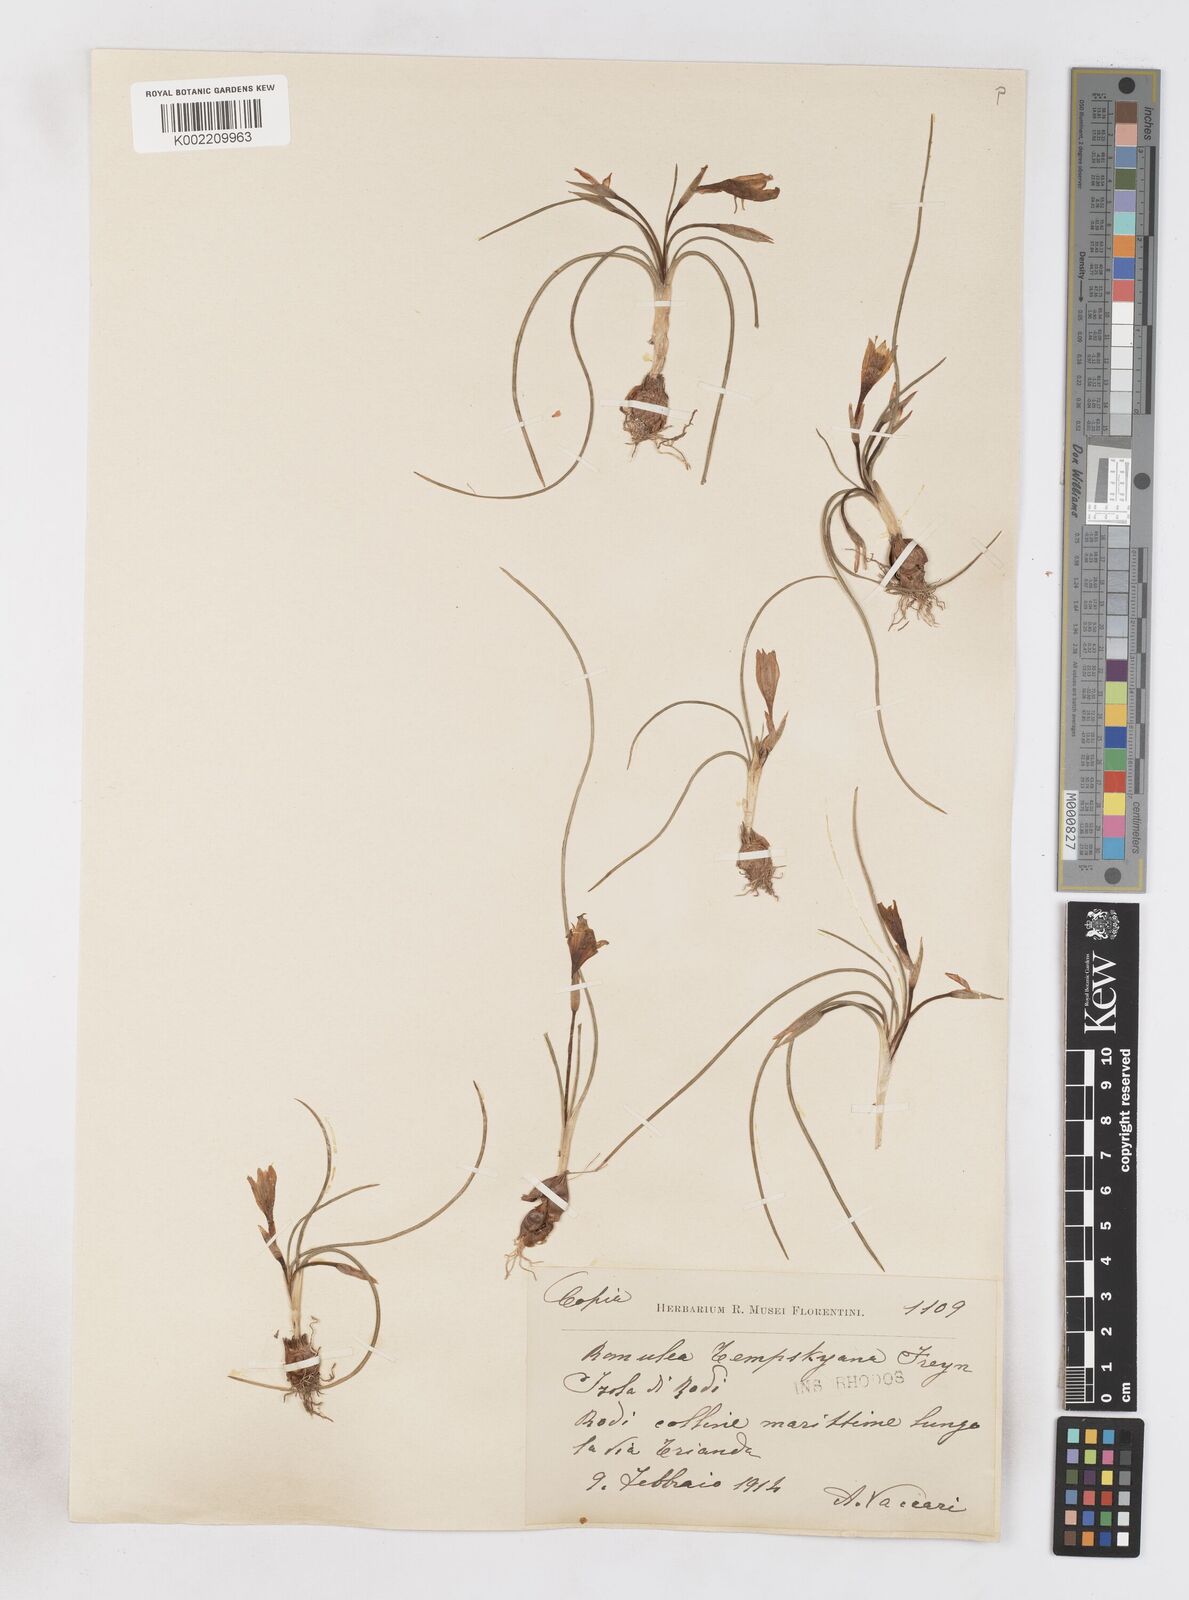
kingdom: Plantae
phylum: Tracheophyta
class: Liliopsida
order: Asparagales
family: Iridaceae
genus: Romulea
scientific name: Romulea tempskyana
